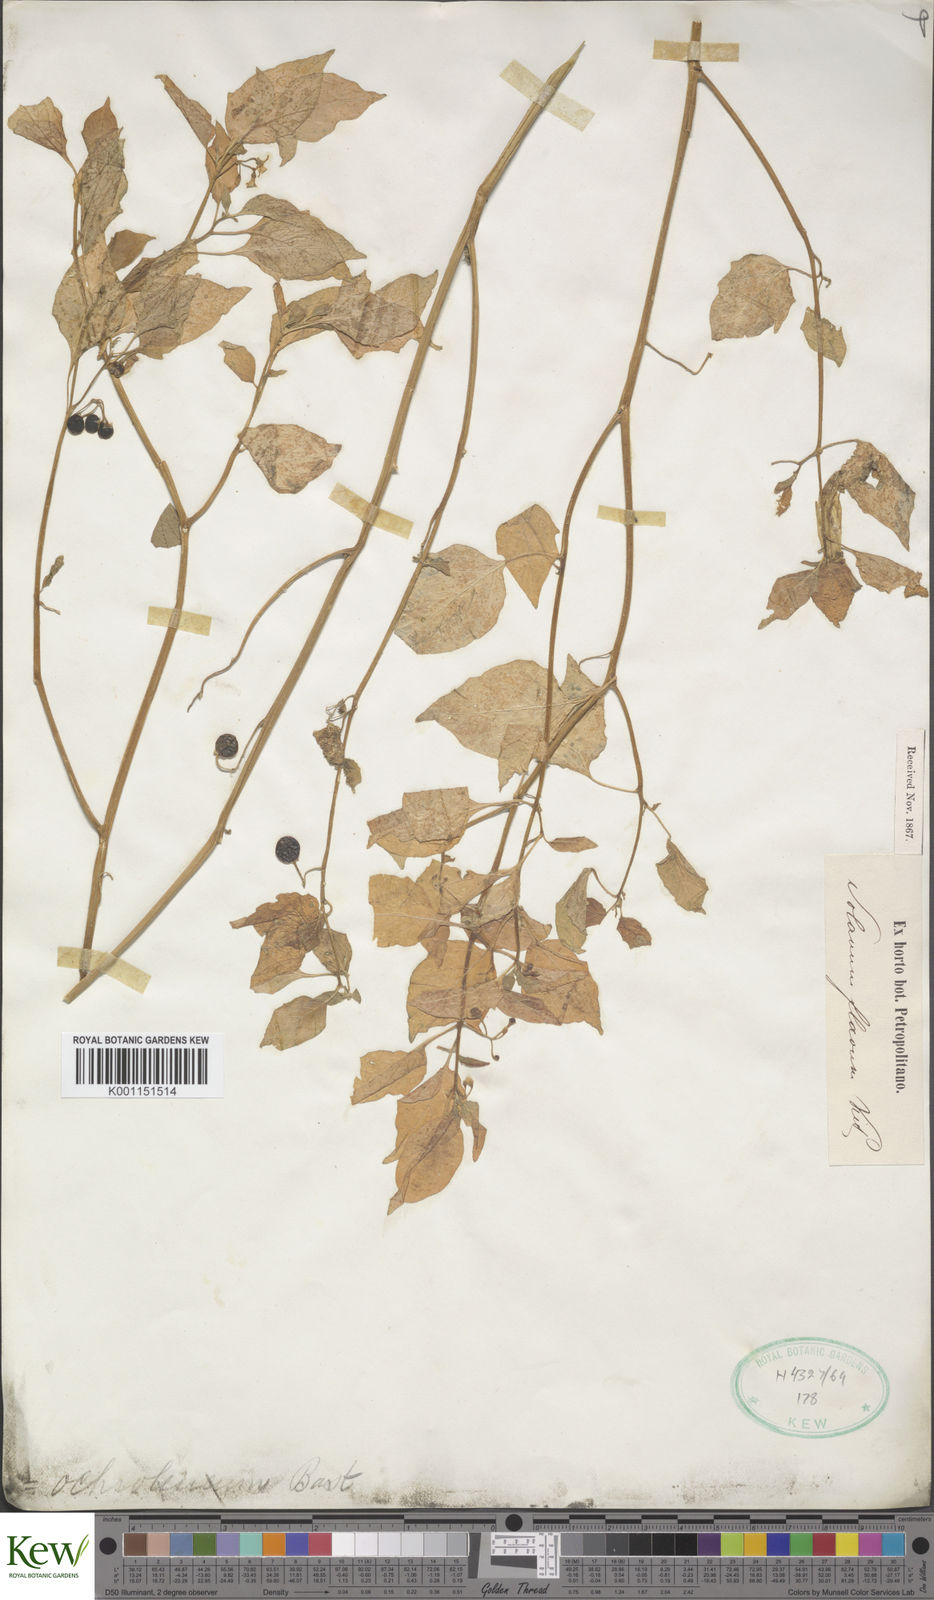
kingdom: Plantae
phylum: Tracheophyta
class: Magnoliopsida
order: Solanales
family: Solanaceae
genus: Solanum
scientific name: Solanum villosum
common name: Red nightshade
